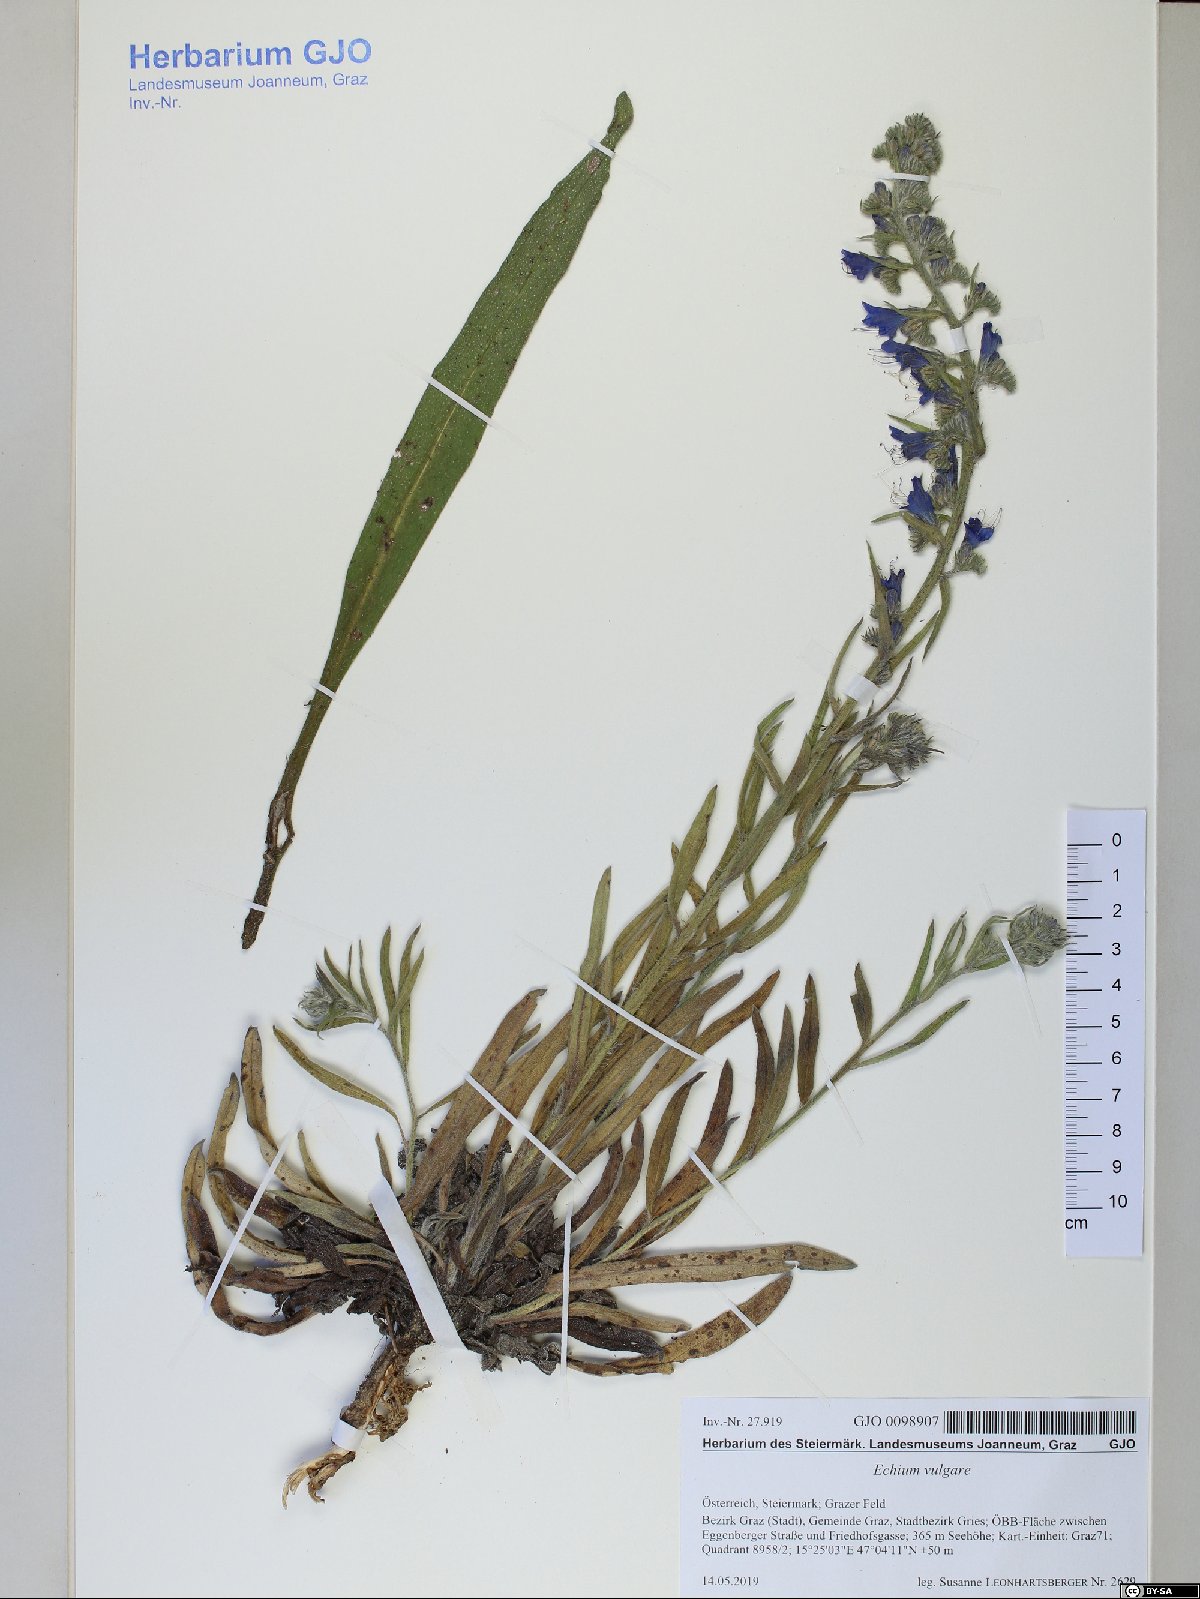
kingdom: Plantae
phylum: Tracheophyta
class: Magnoliopsida
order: Boraginales
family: Boraginaceae
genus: Echium
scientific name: Echium vulgare
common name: Common viper's bugloss
